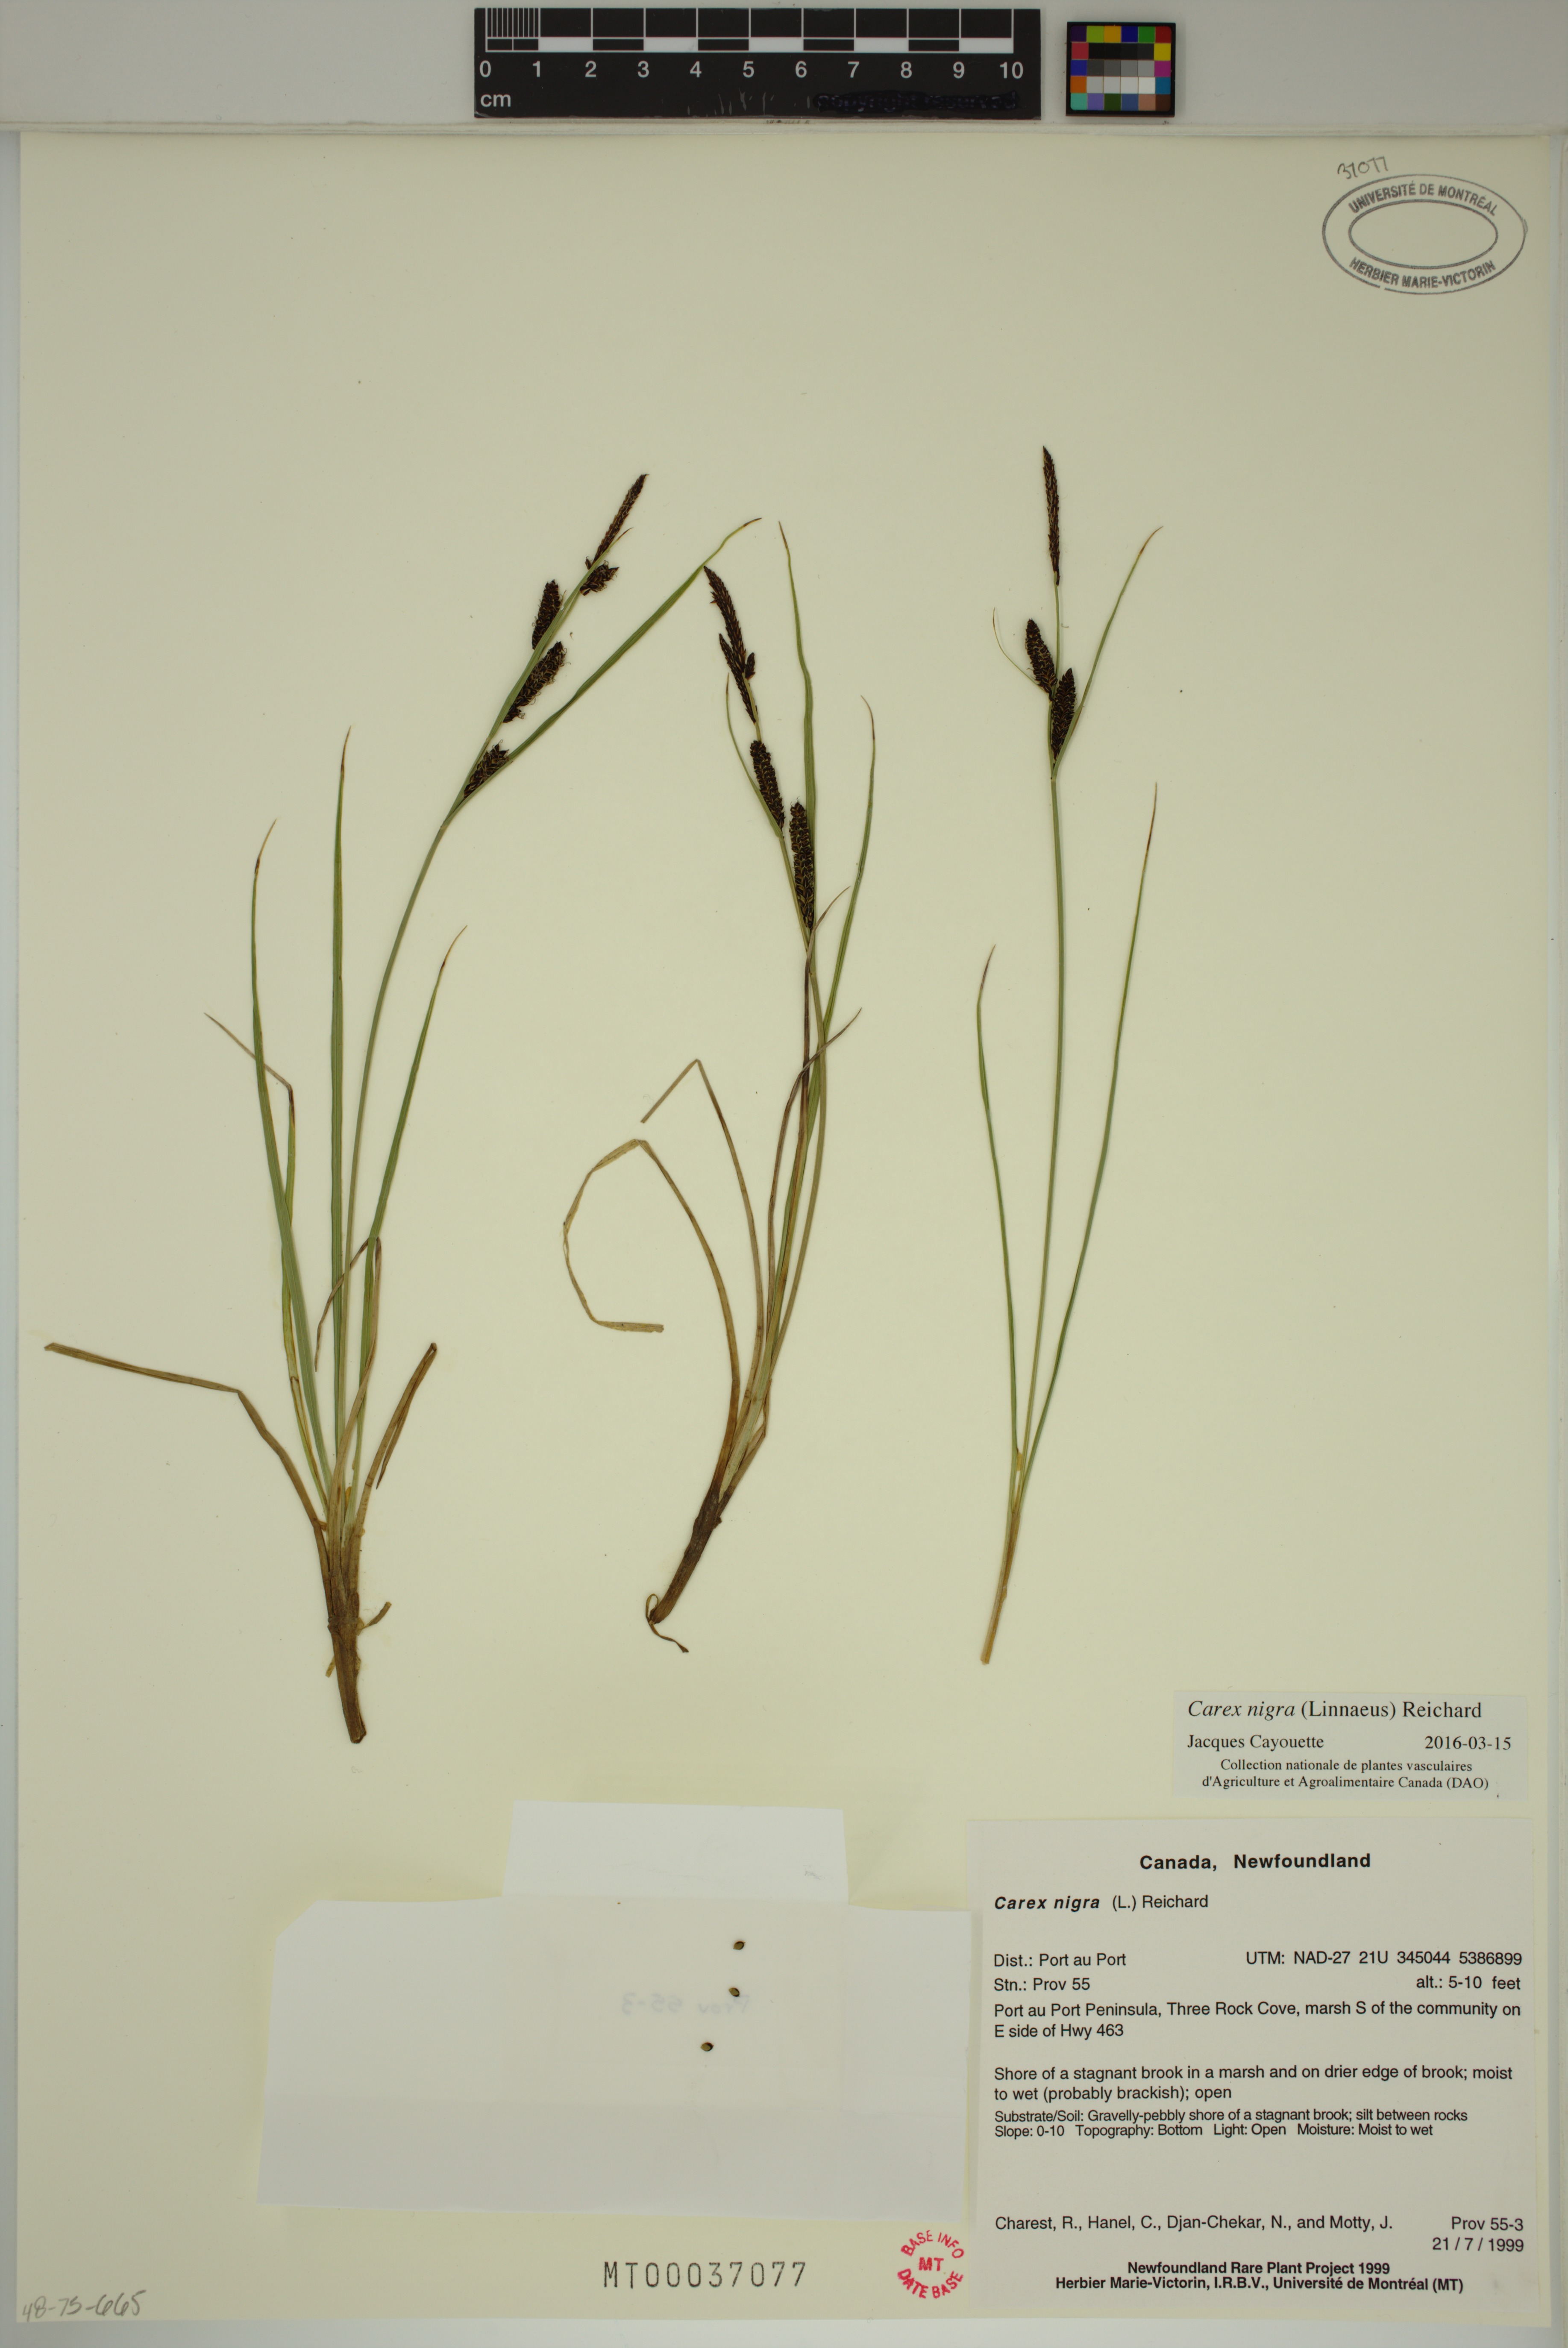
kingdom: Plantae
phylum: Tracheophyta
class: Liliopsida
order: Poales
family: Cyperaceae
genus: Carex
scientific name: Carex nigra
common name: Common sedge
